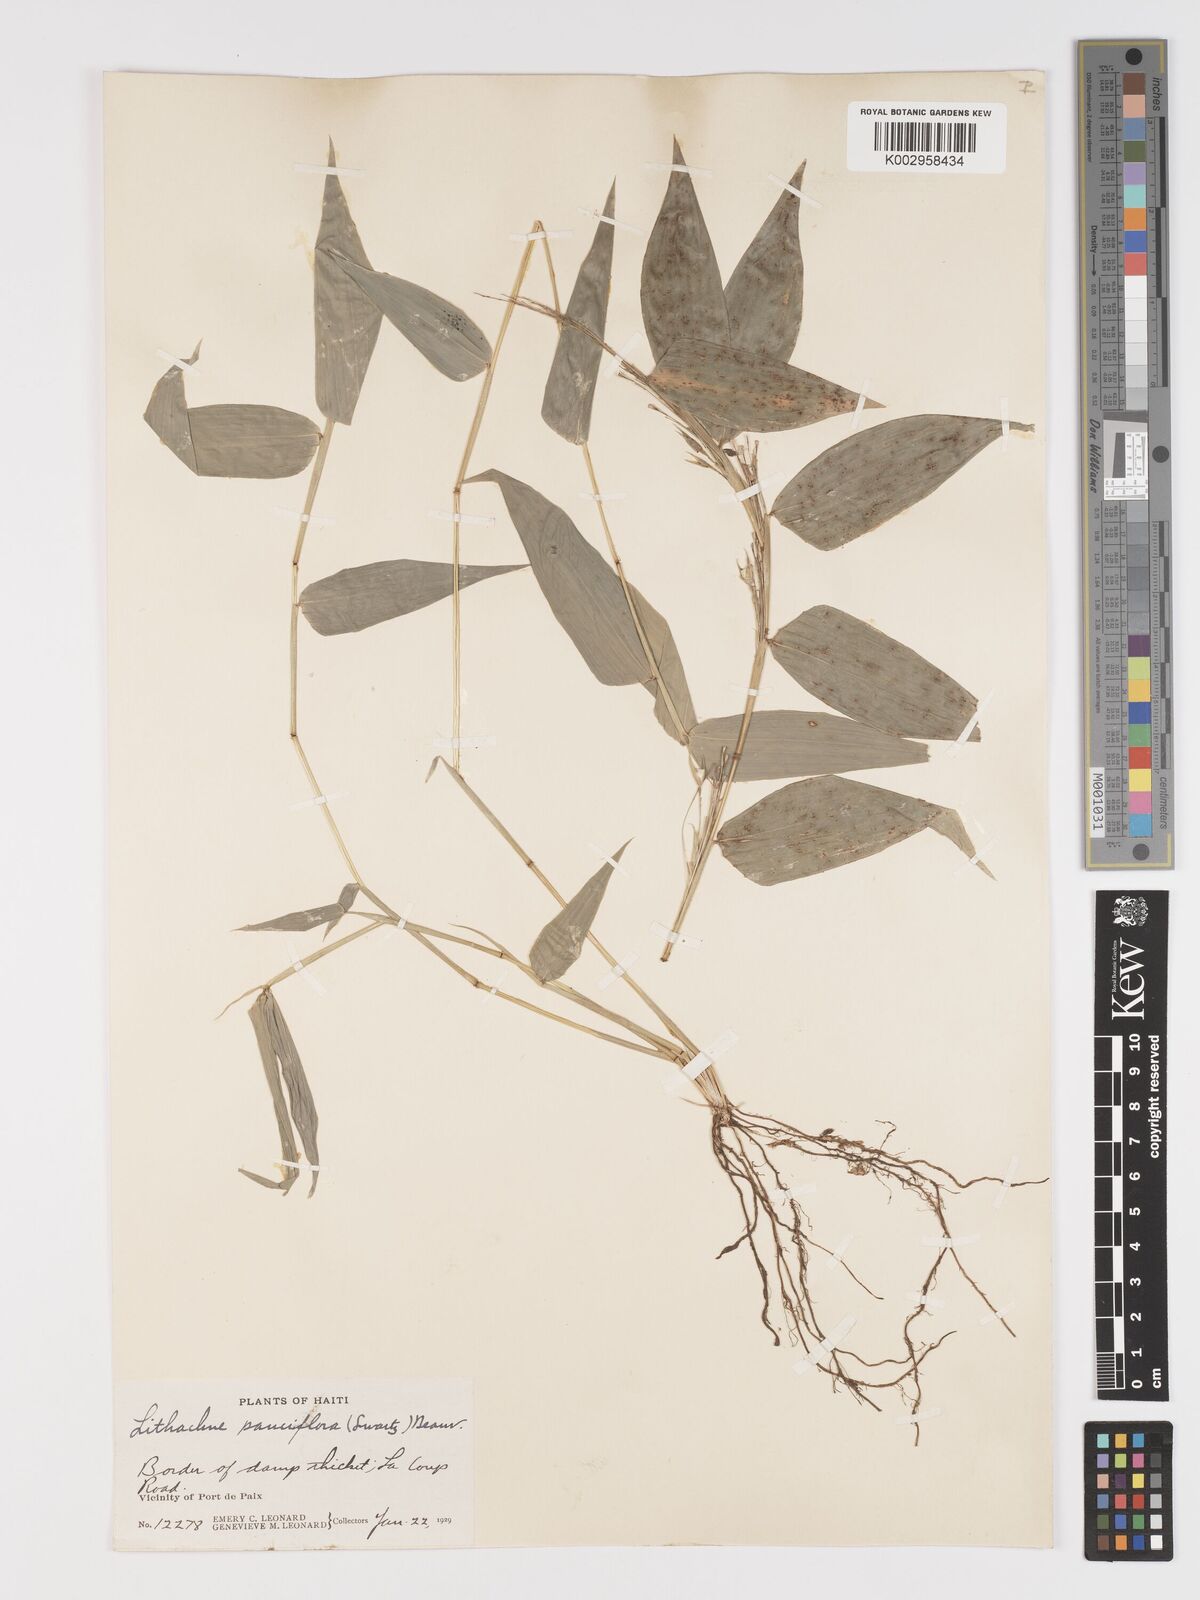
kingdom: Plantae
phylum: Tracheophyta
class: Liliopsida
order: Poales
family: Poaceae
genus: Lithachne
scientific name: Lithachne pauciflora
